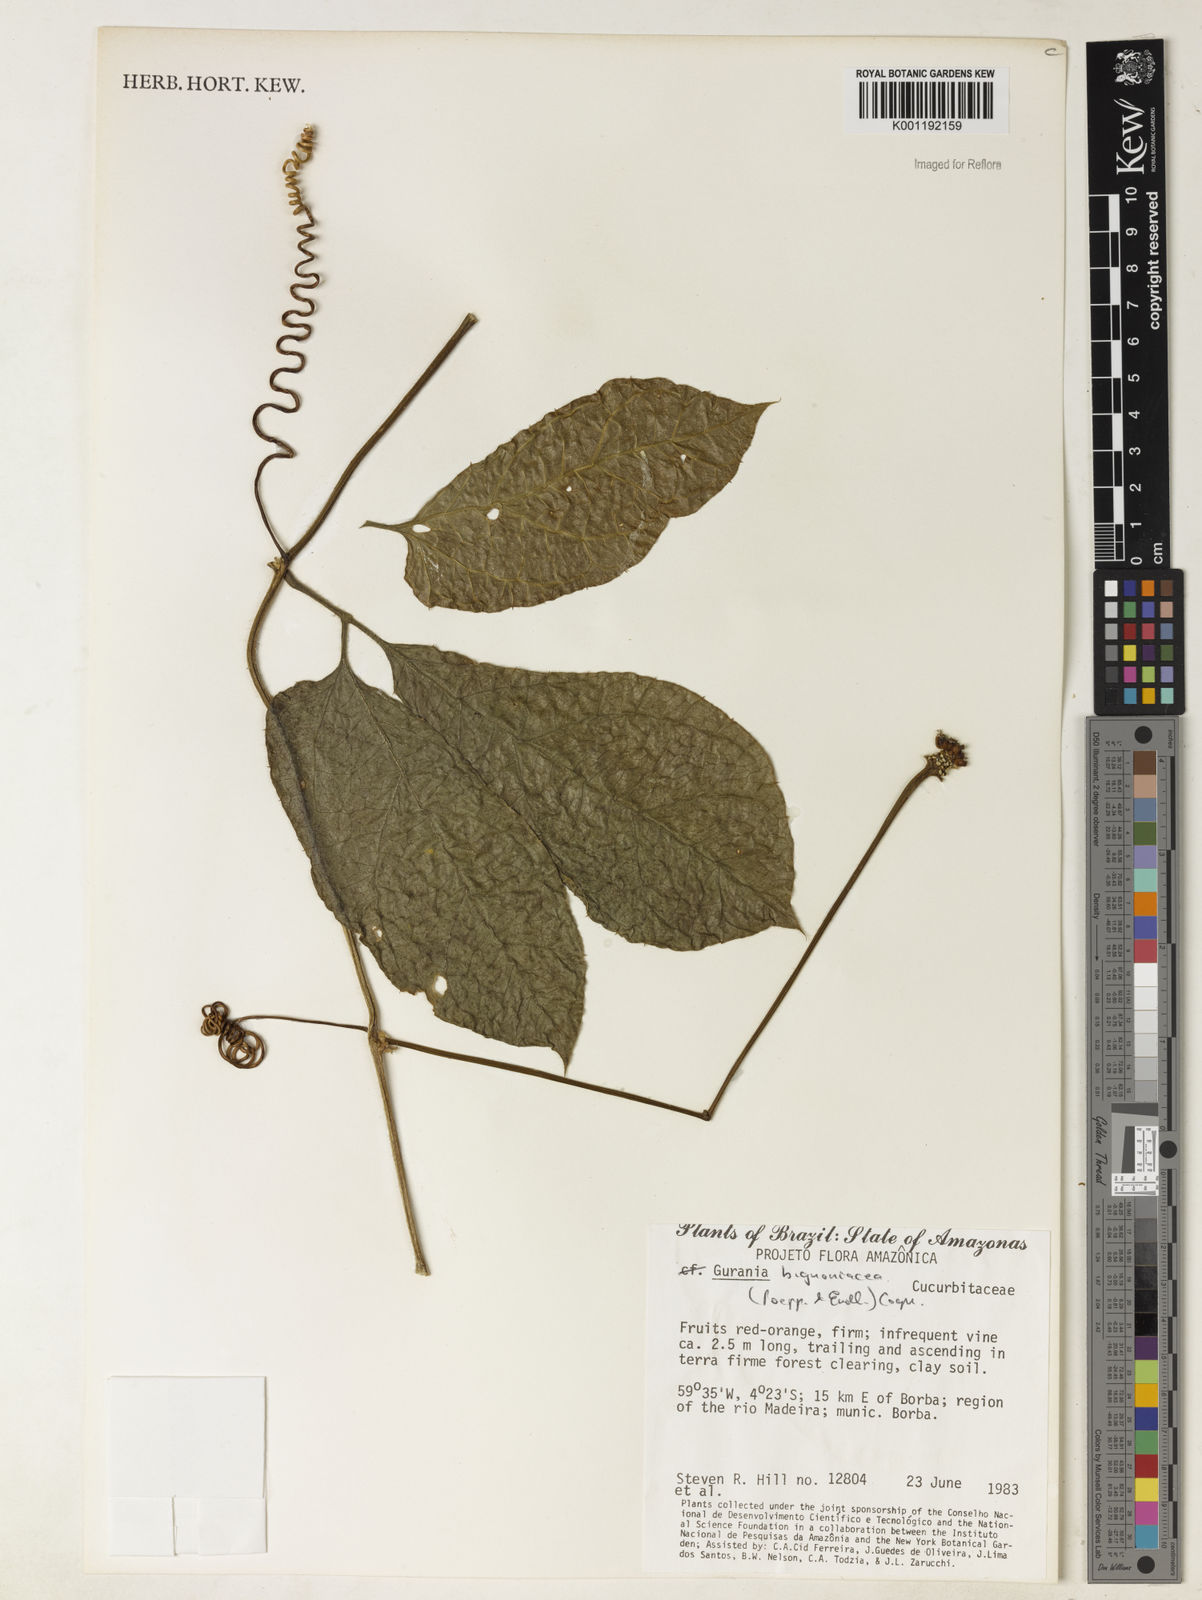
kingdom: Plantae
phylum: Tracheophyta
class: Magnoliopsida
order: Cucurbitales
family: Cucurbitaceae
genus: Gurania
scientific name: Gurania bignoniacea
